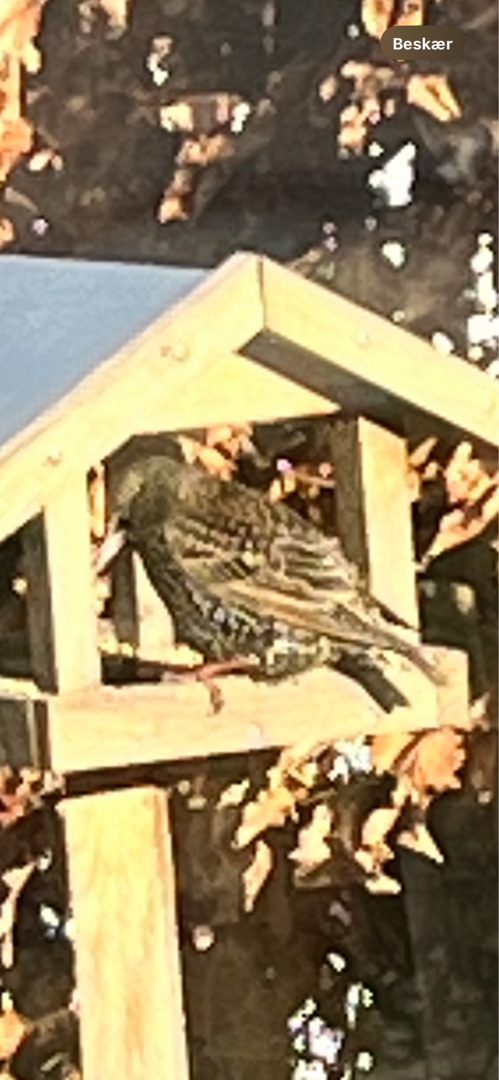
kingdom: Animalia
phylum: Chordata
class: Aves
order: Passeriformes
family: Sturnidae
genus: Sturnus
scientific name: Sturnus vulgaris
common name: Stær
